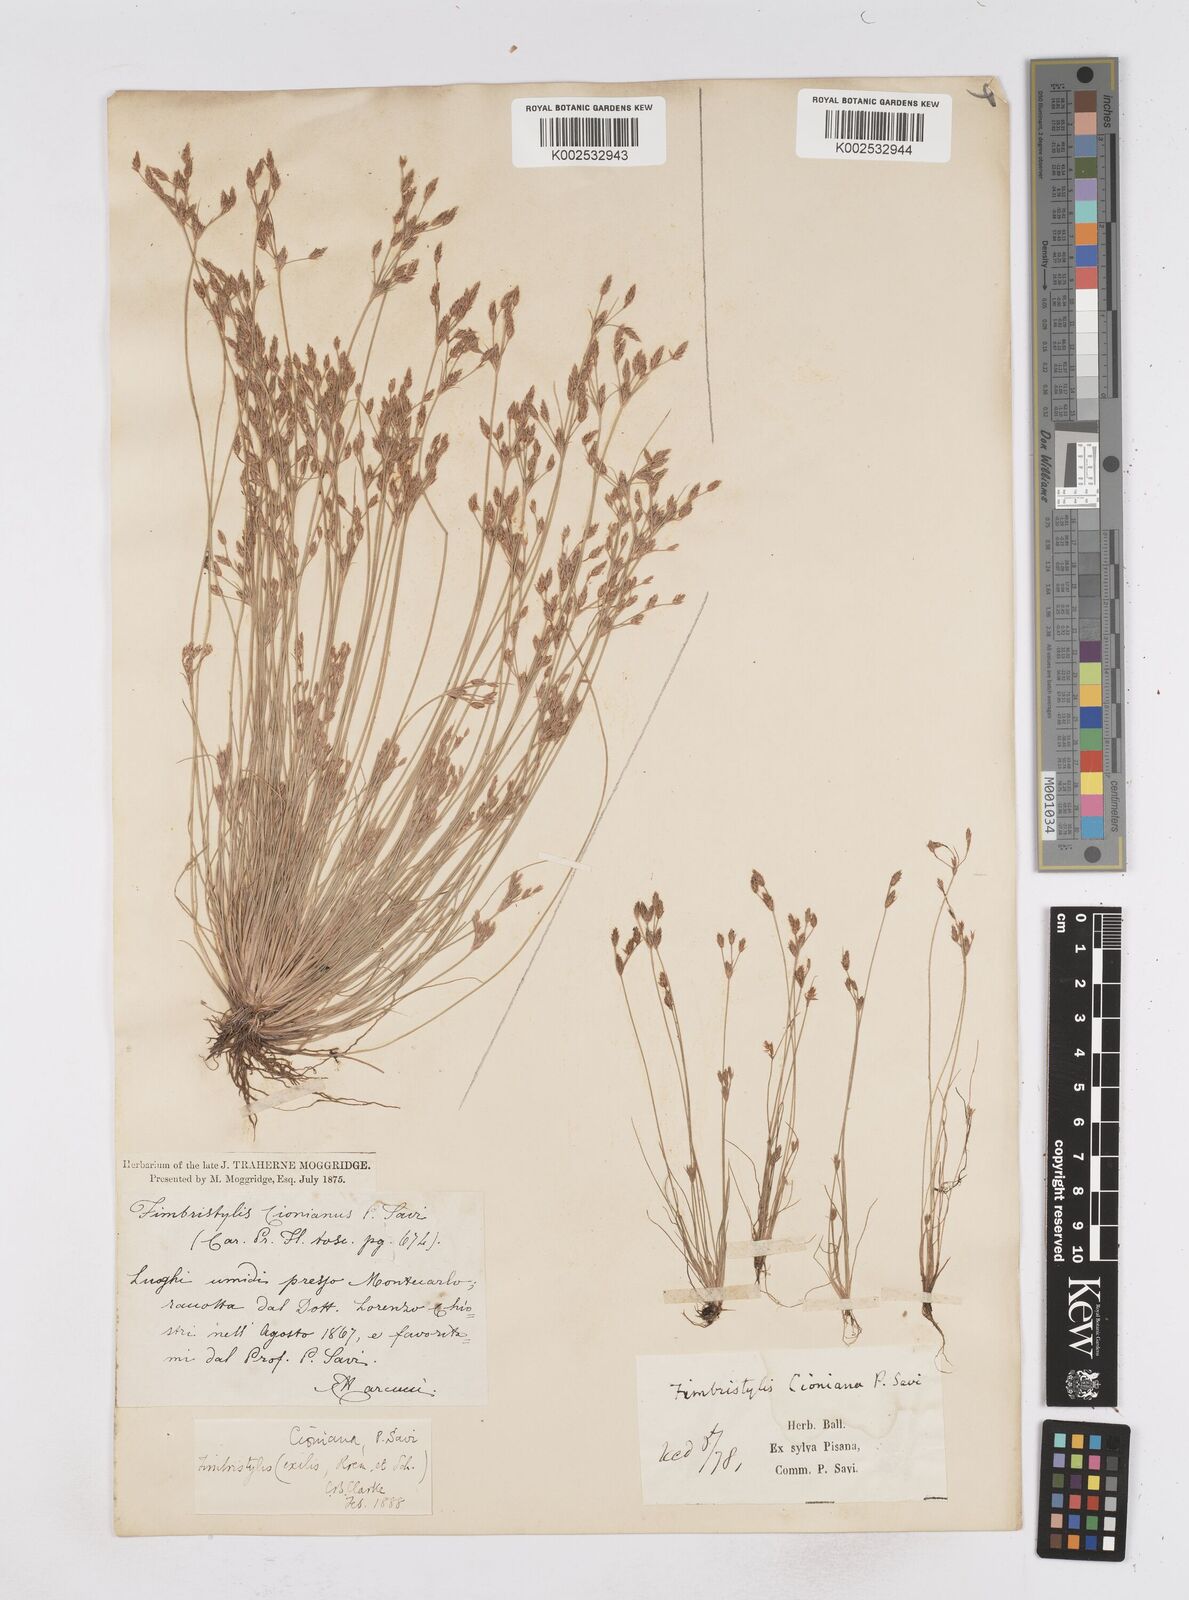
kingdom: Plantae
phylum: Tracheophyta
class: Liliopsida
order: Poales
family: Cyperaceae
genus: Bulbostylis
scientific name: Bulbostylis cioniana
